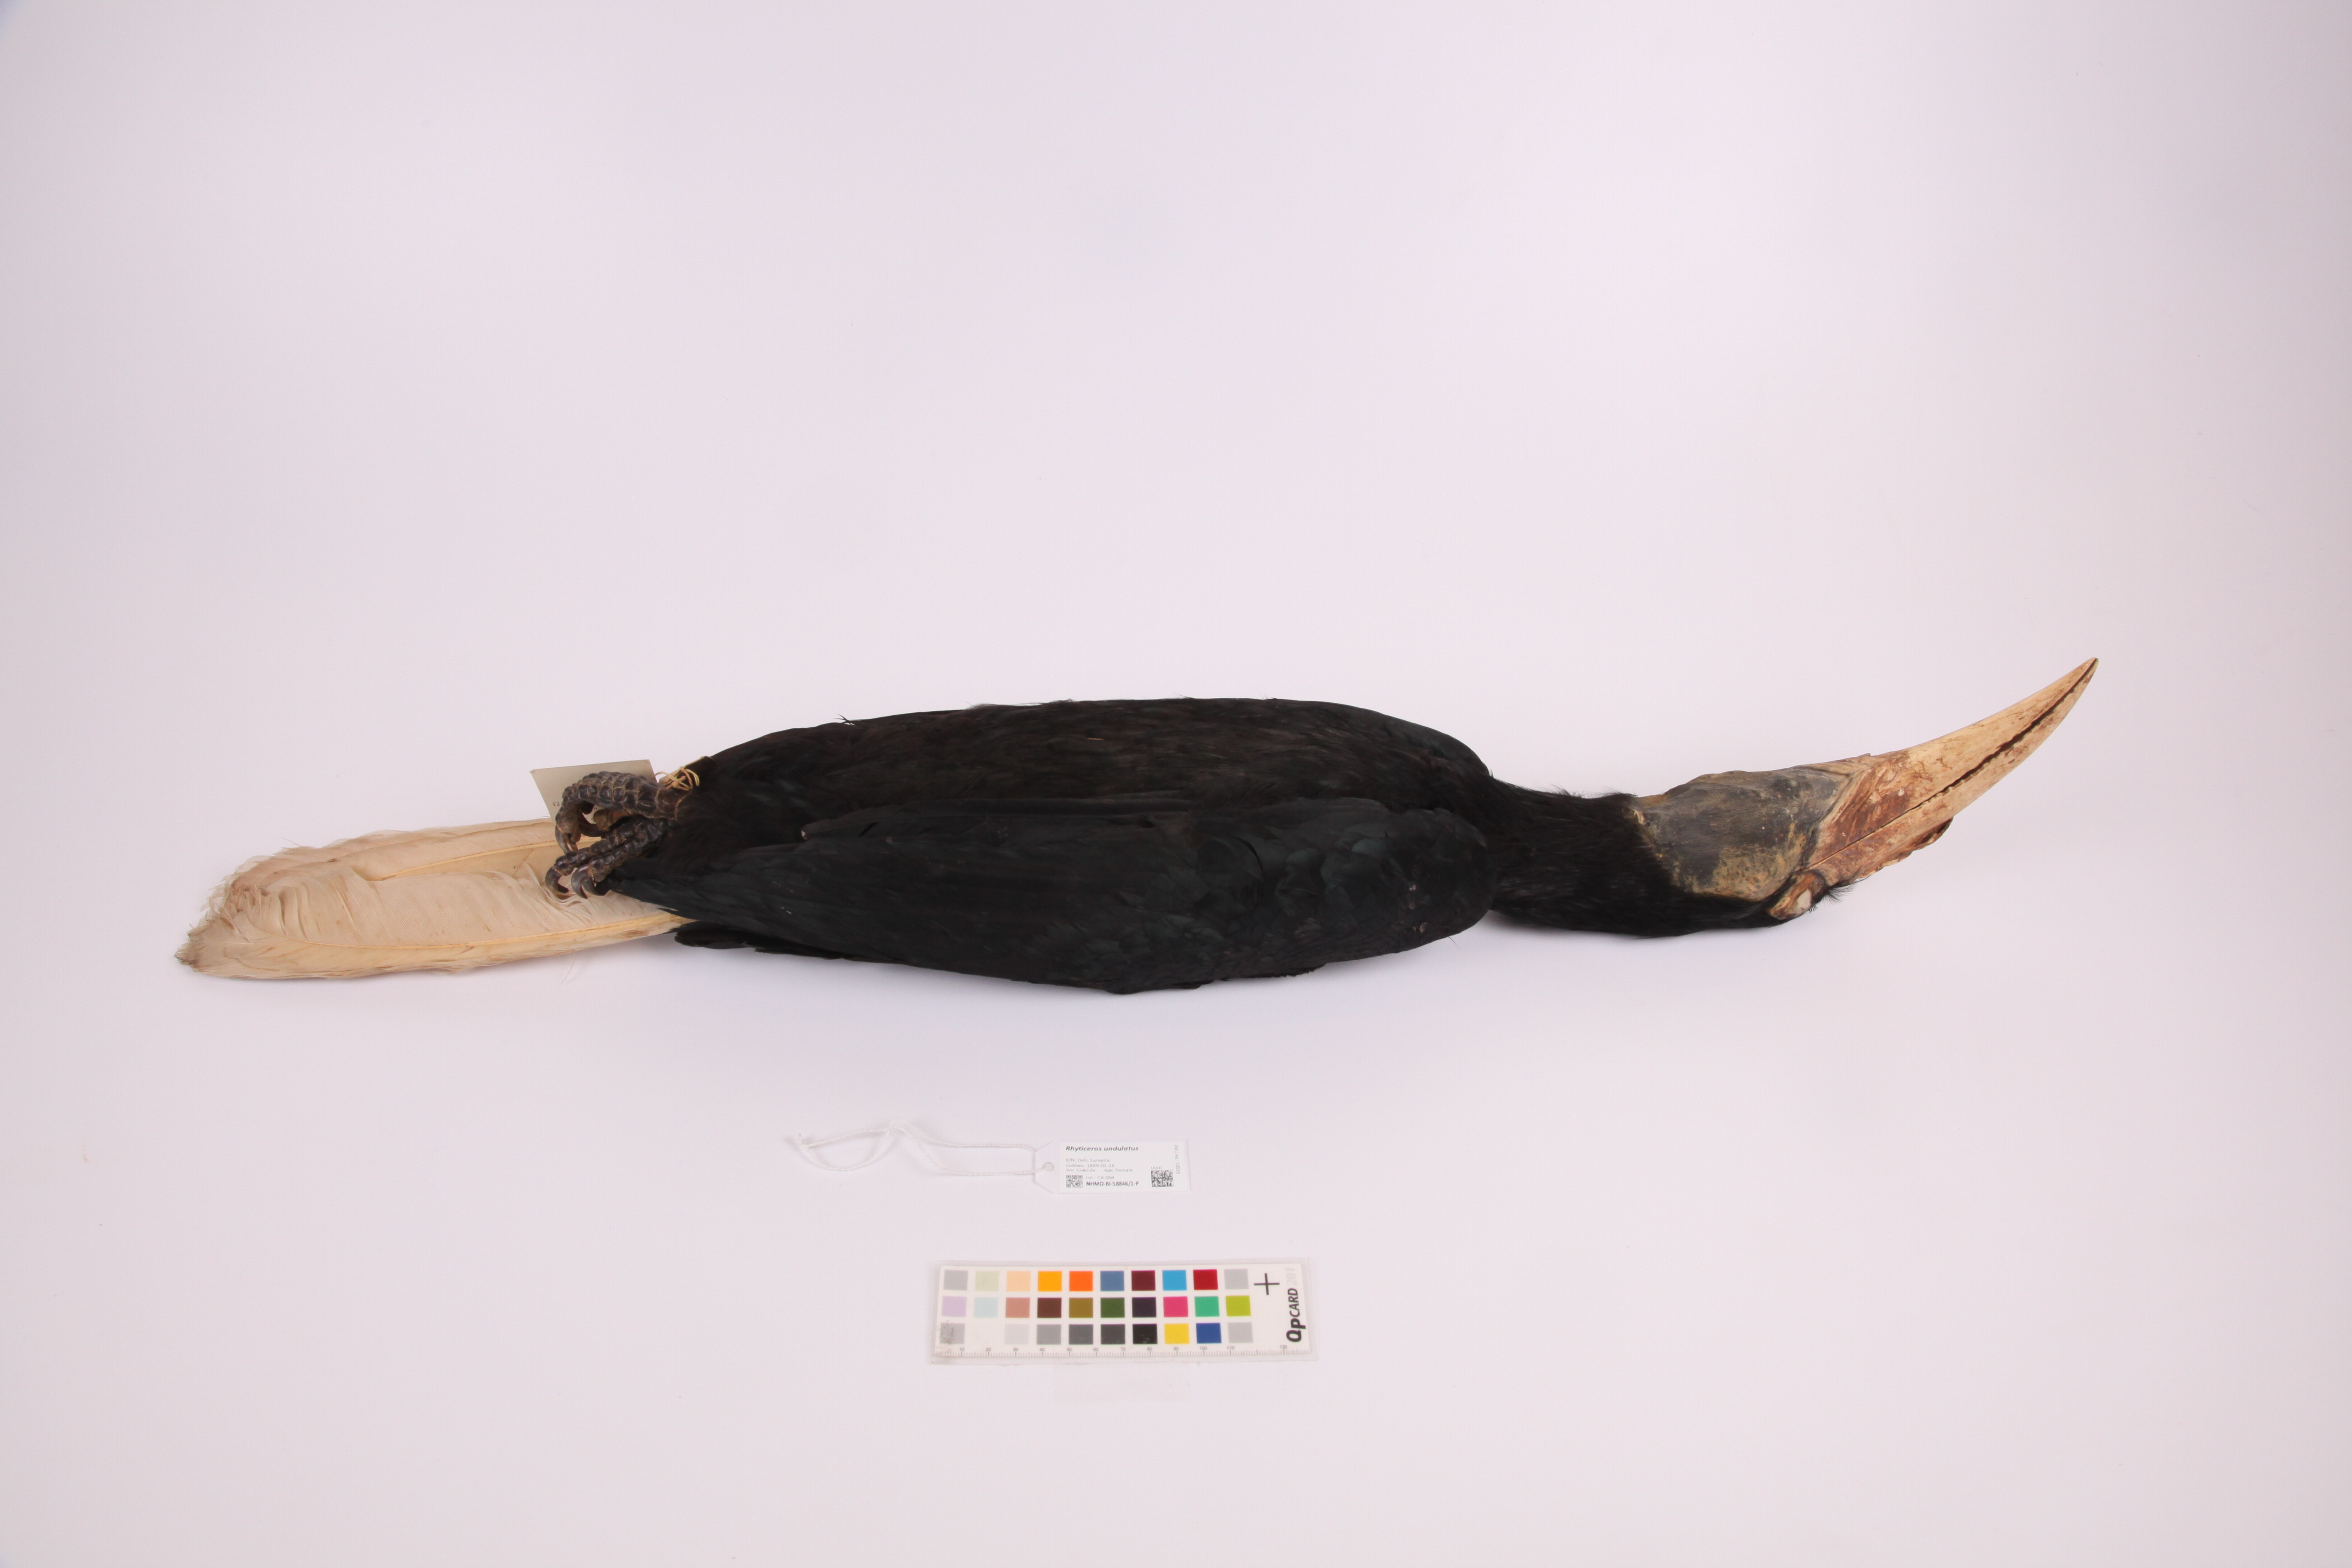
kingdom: Animalia
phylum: Chordata
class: Aves
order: Bucerotiformes
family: Bucerotidae
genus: Rhyticeros
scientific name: Rhyticeros undulatus
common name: Wreathed hornbill
